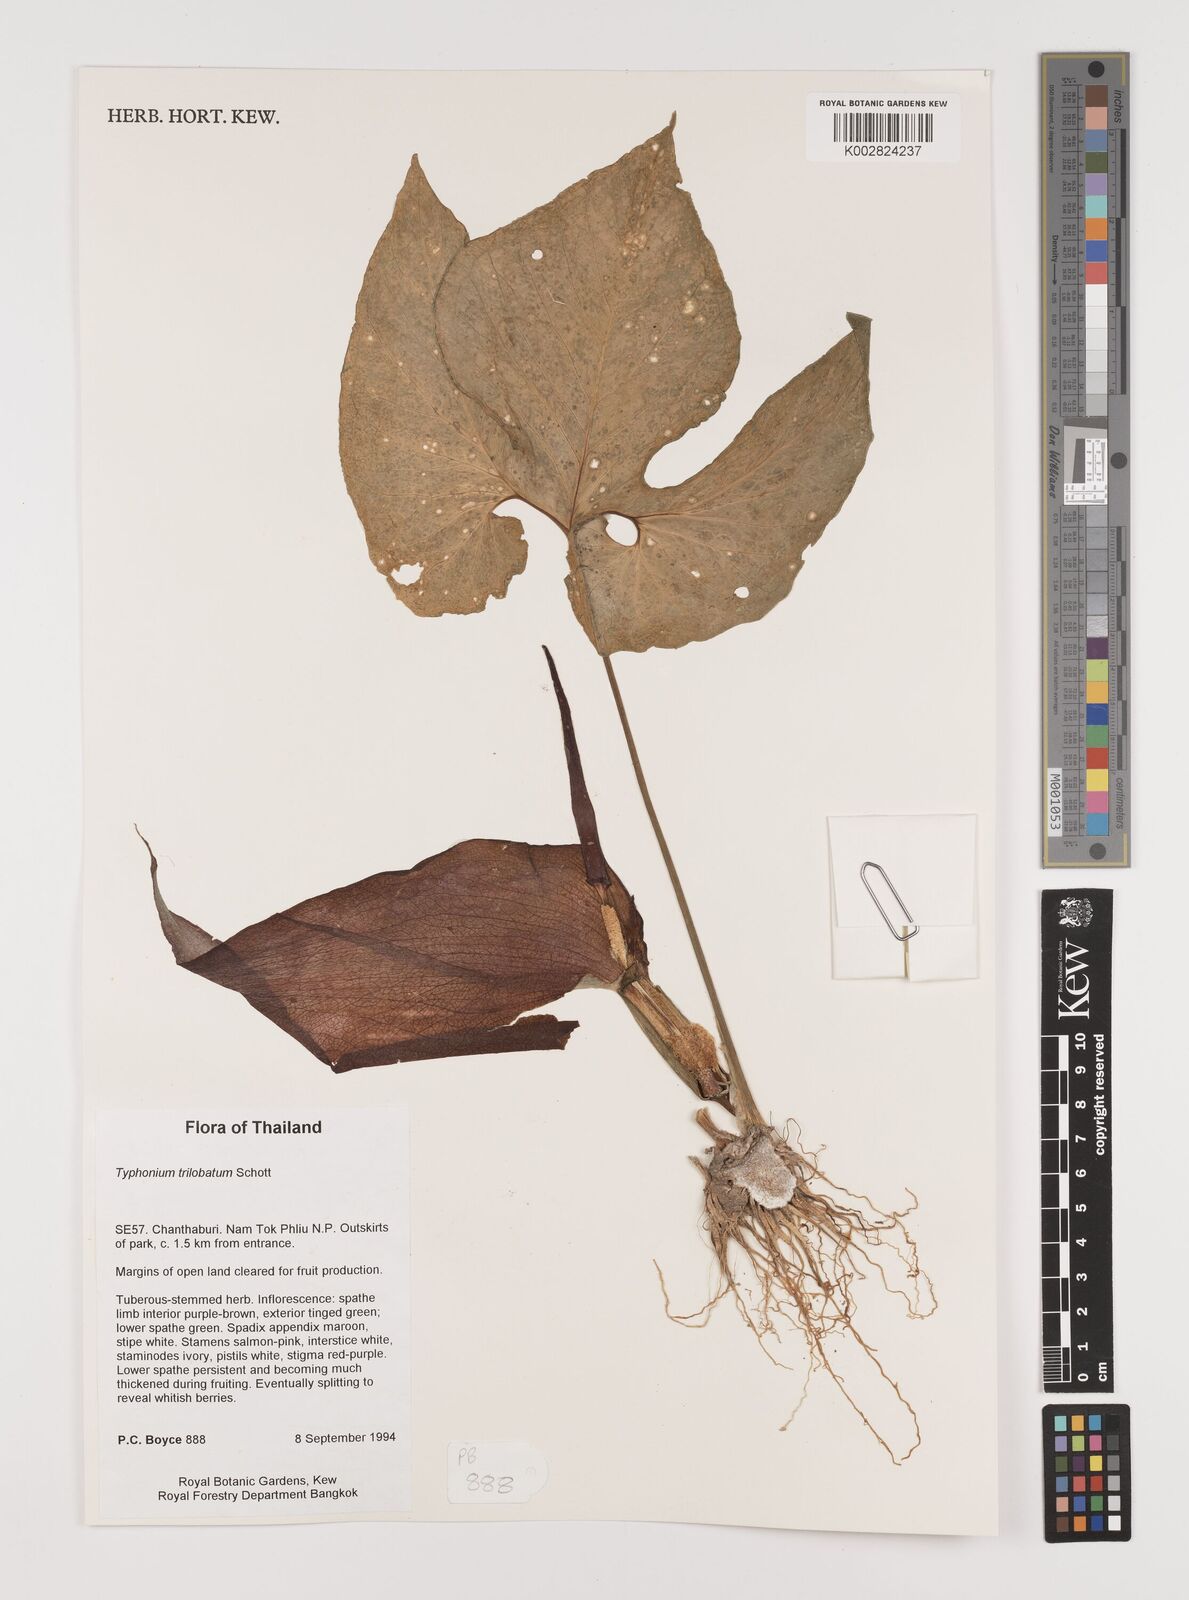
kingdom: Plantae
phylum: Tracheophyta
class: Liliopsida
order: Alismatales
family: Araceae
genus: Typhonium
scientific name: Typhonium trilobatum
